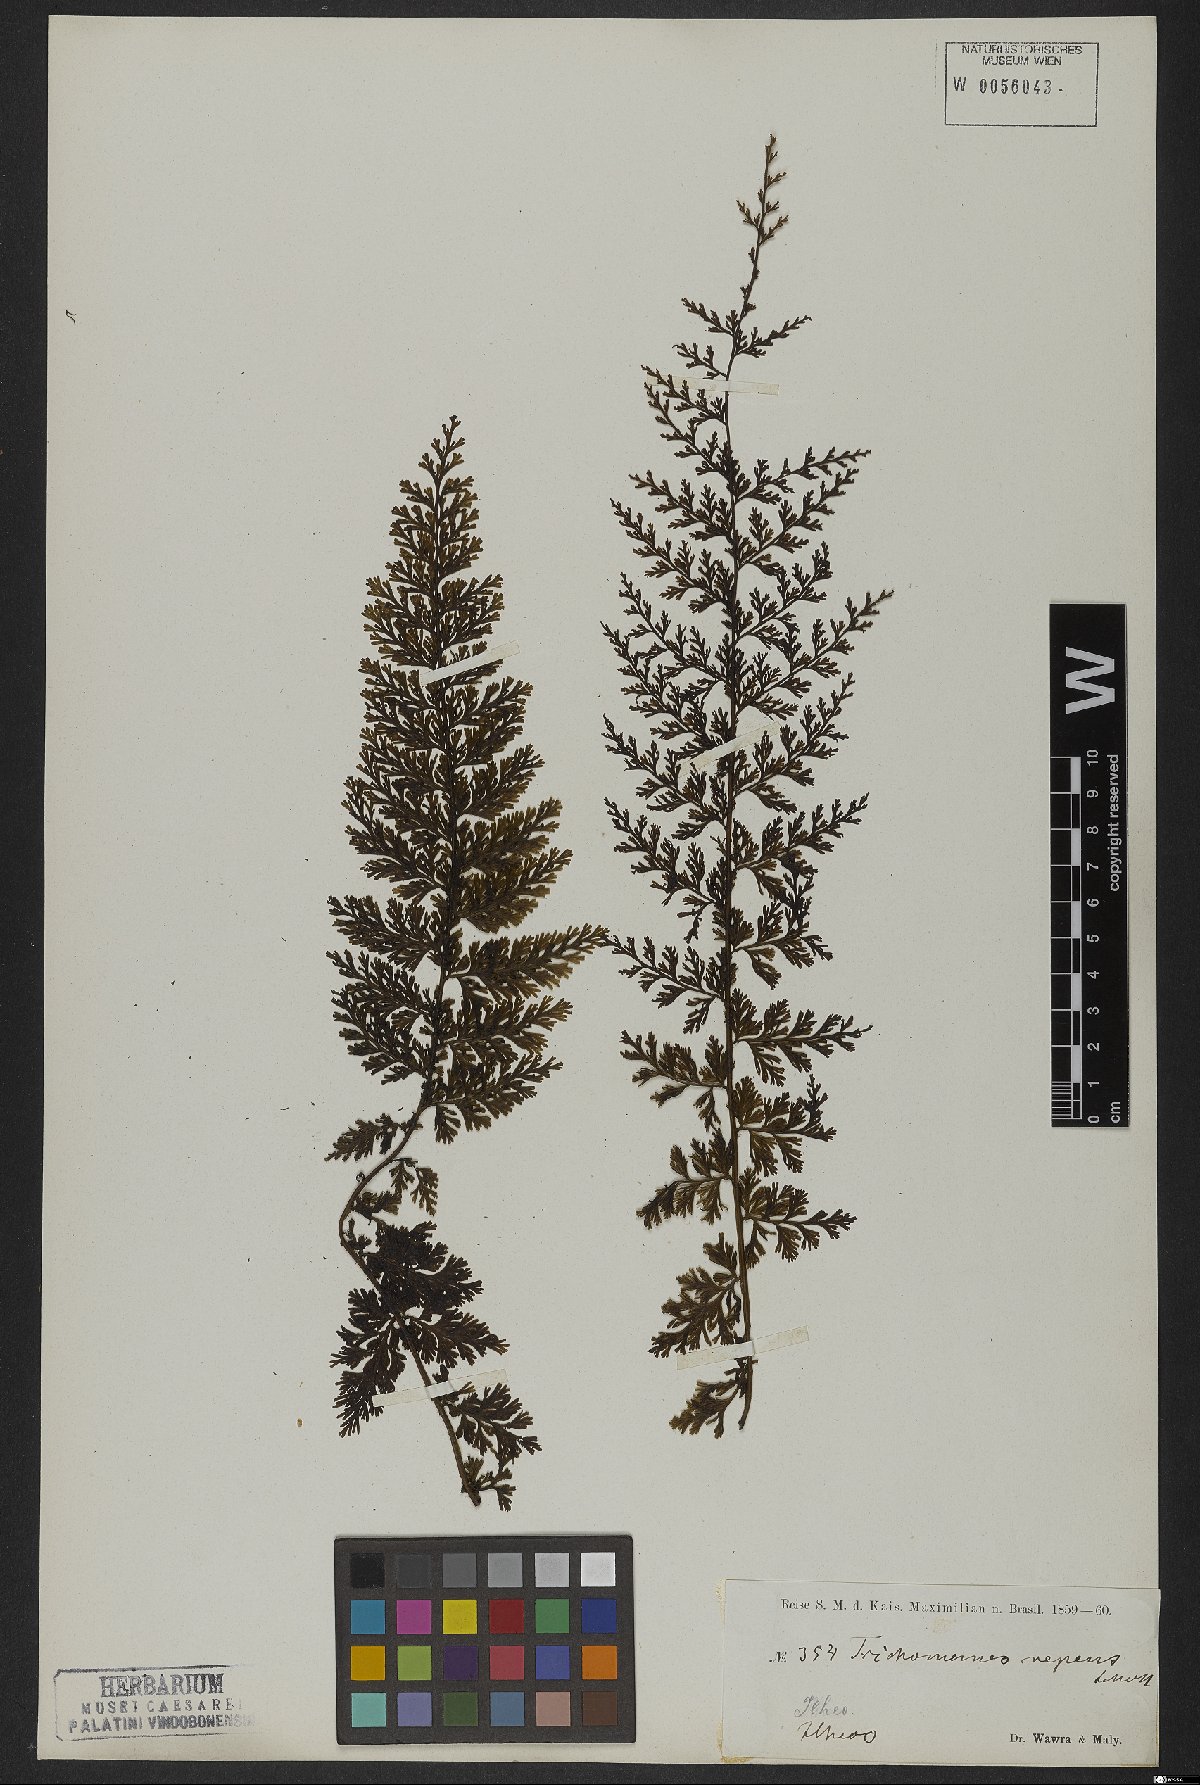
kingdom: Plantae
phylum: Tracheophyta
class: Polypodiopsida
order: Hymenophyllales
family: Hymenophyllaceae
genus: Vandenboschia
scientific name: Vandenboschia radicans
